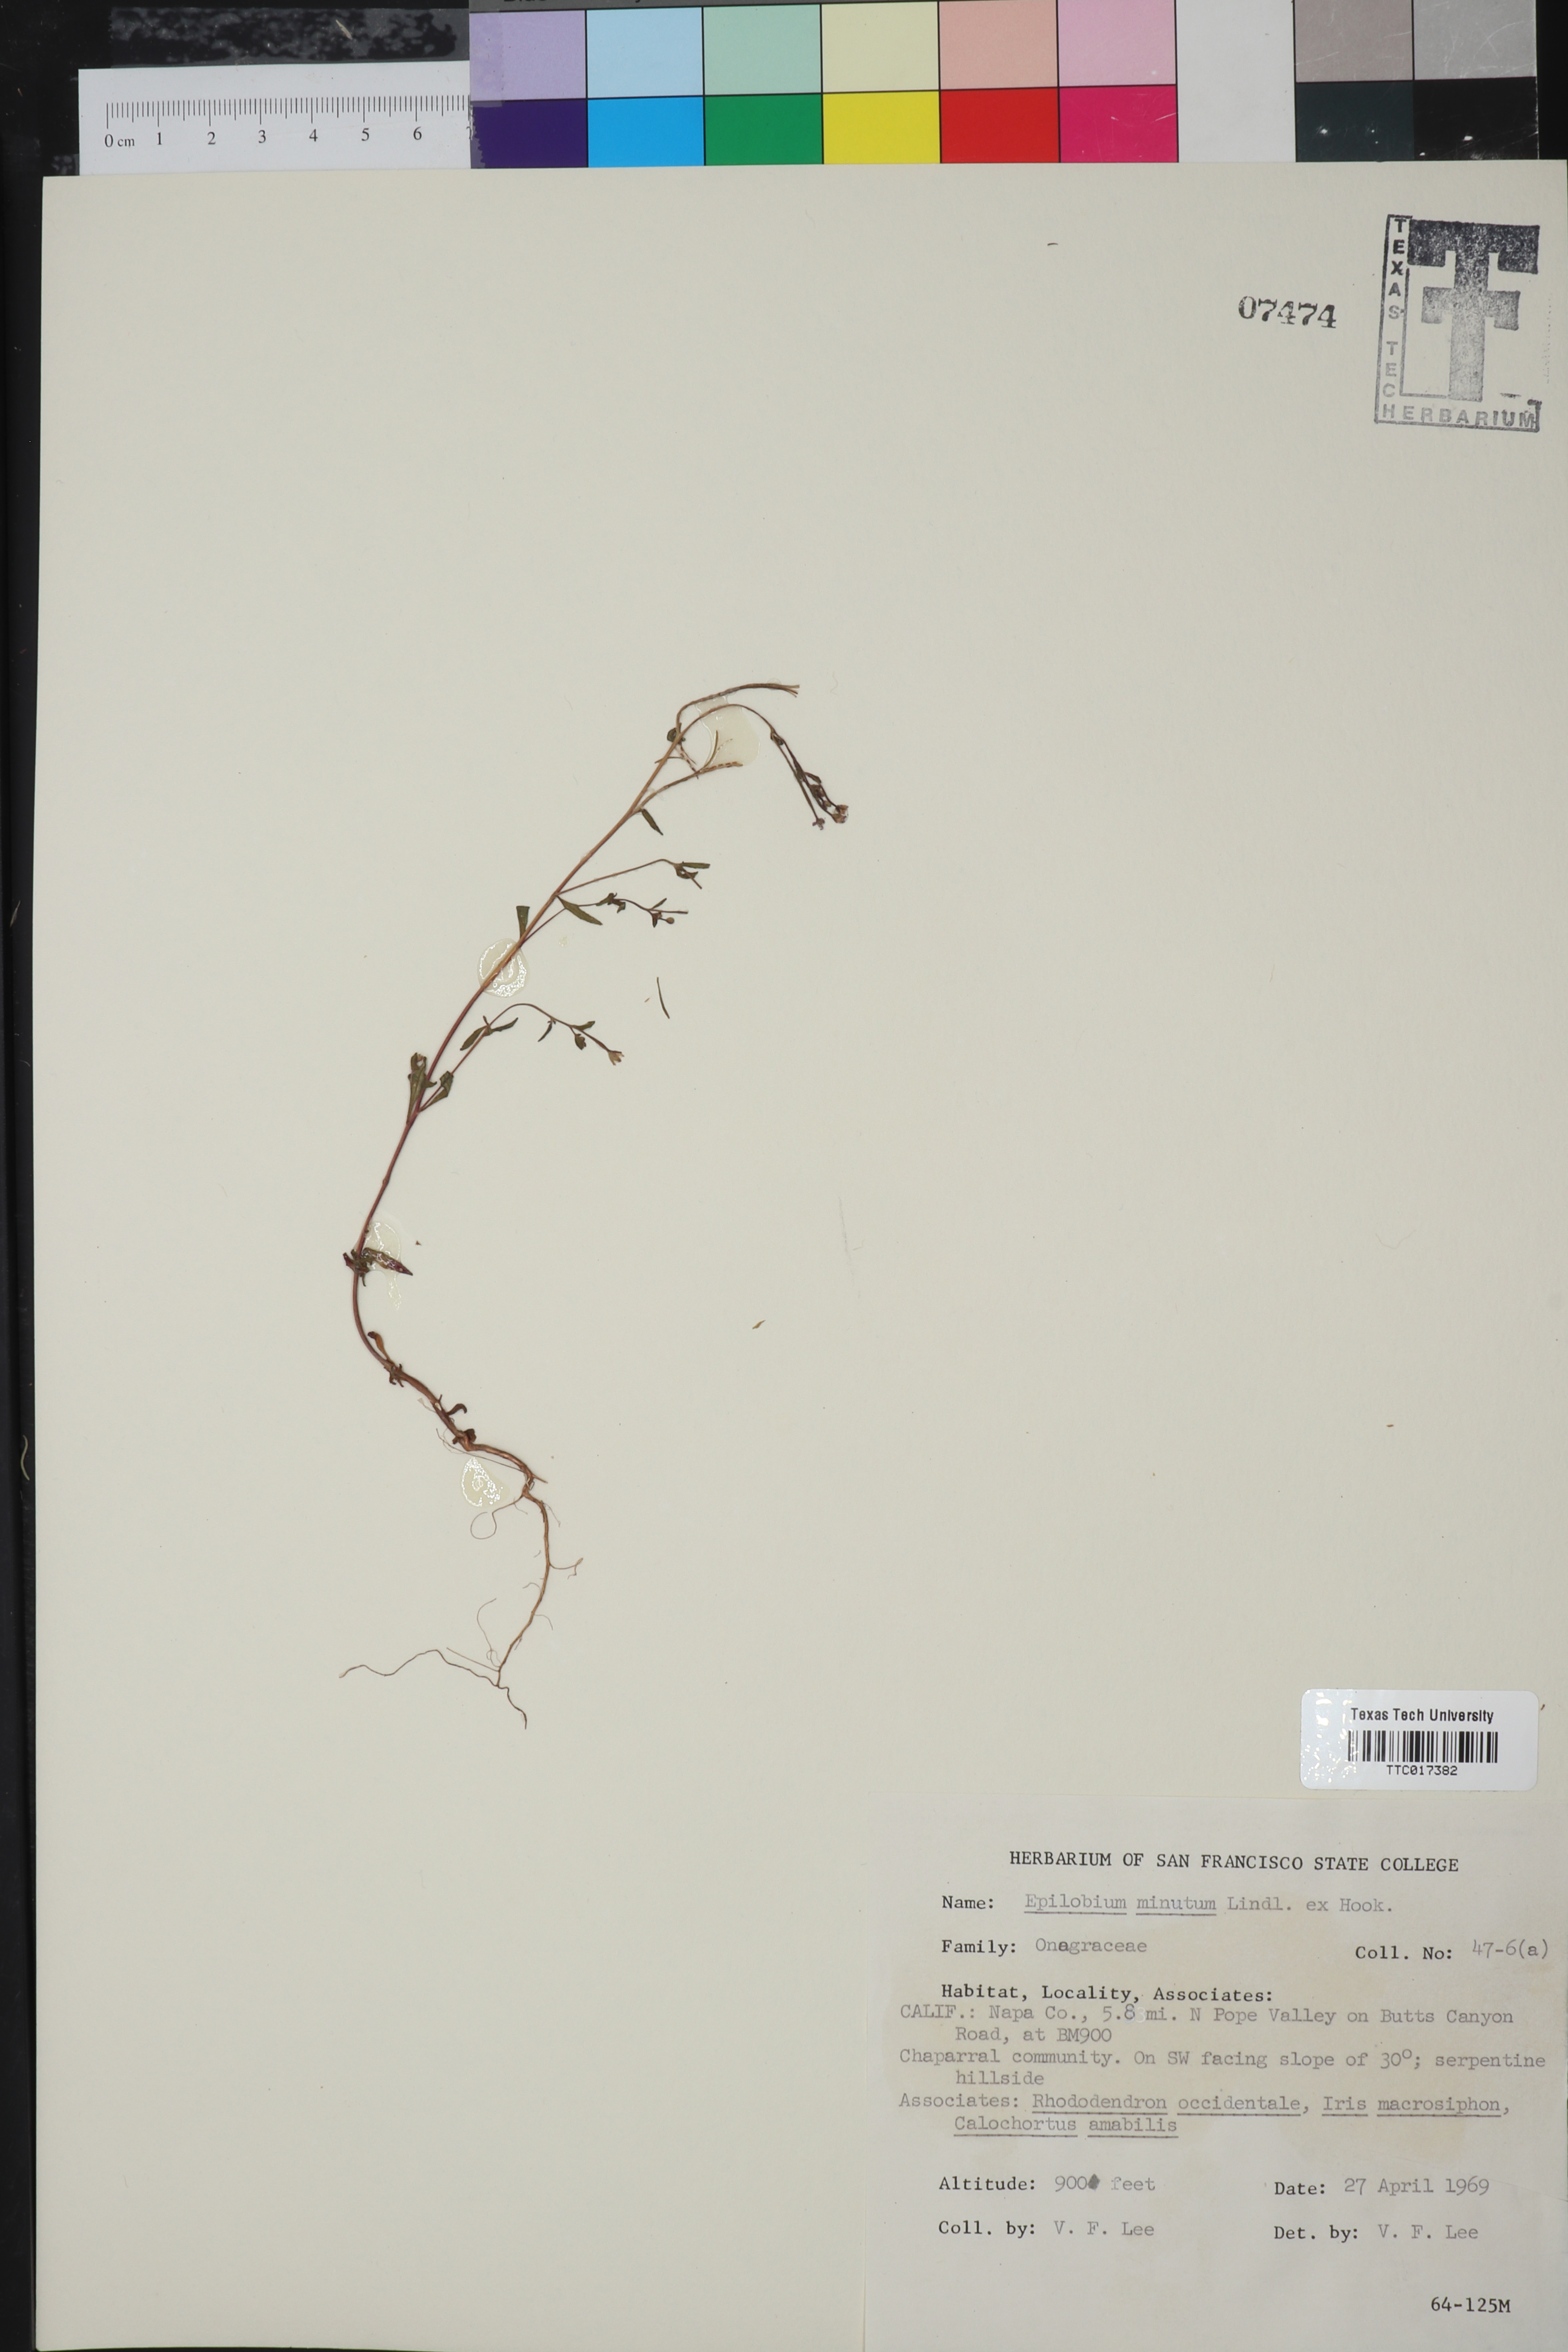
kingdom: Plantae
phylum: Tracheophyta
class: Magnoliopsida
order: Myrtales
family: Onagraceae
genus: Epilobium
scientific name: Epilobium minutum
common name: Chaparral willowherb
